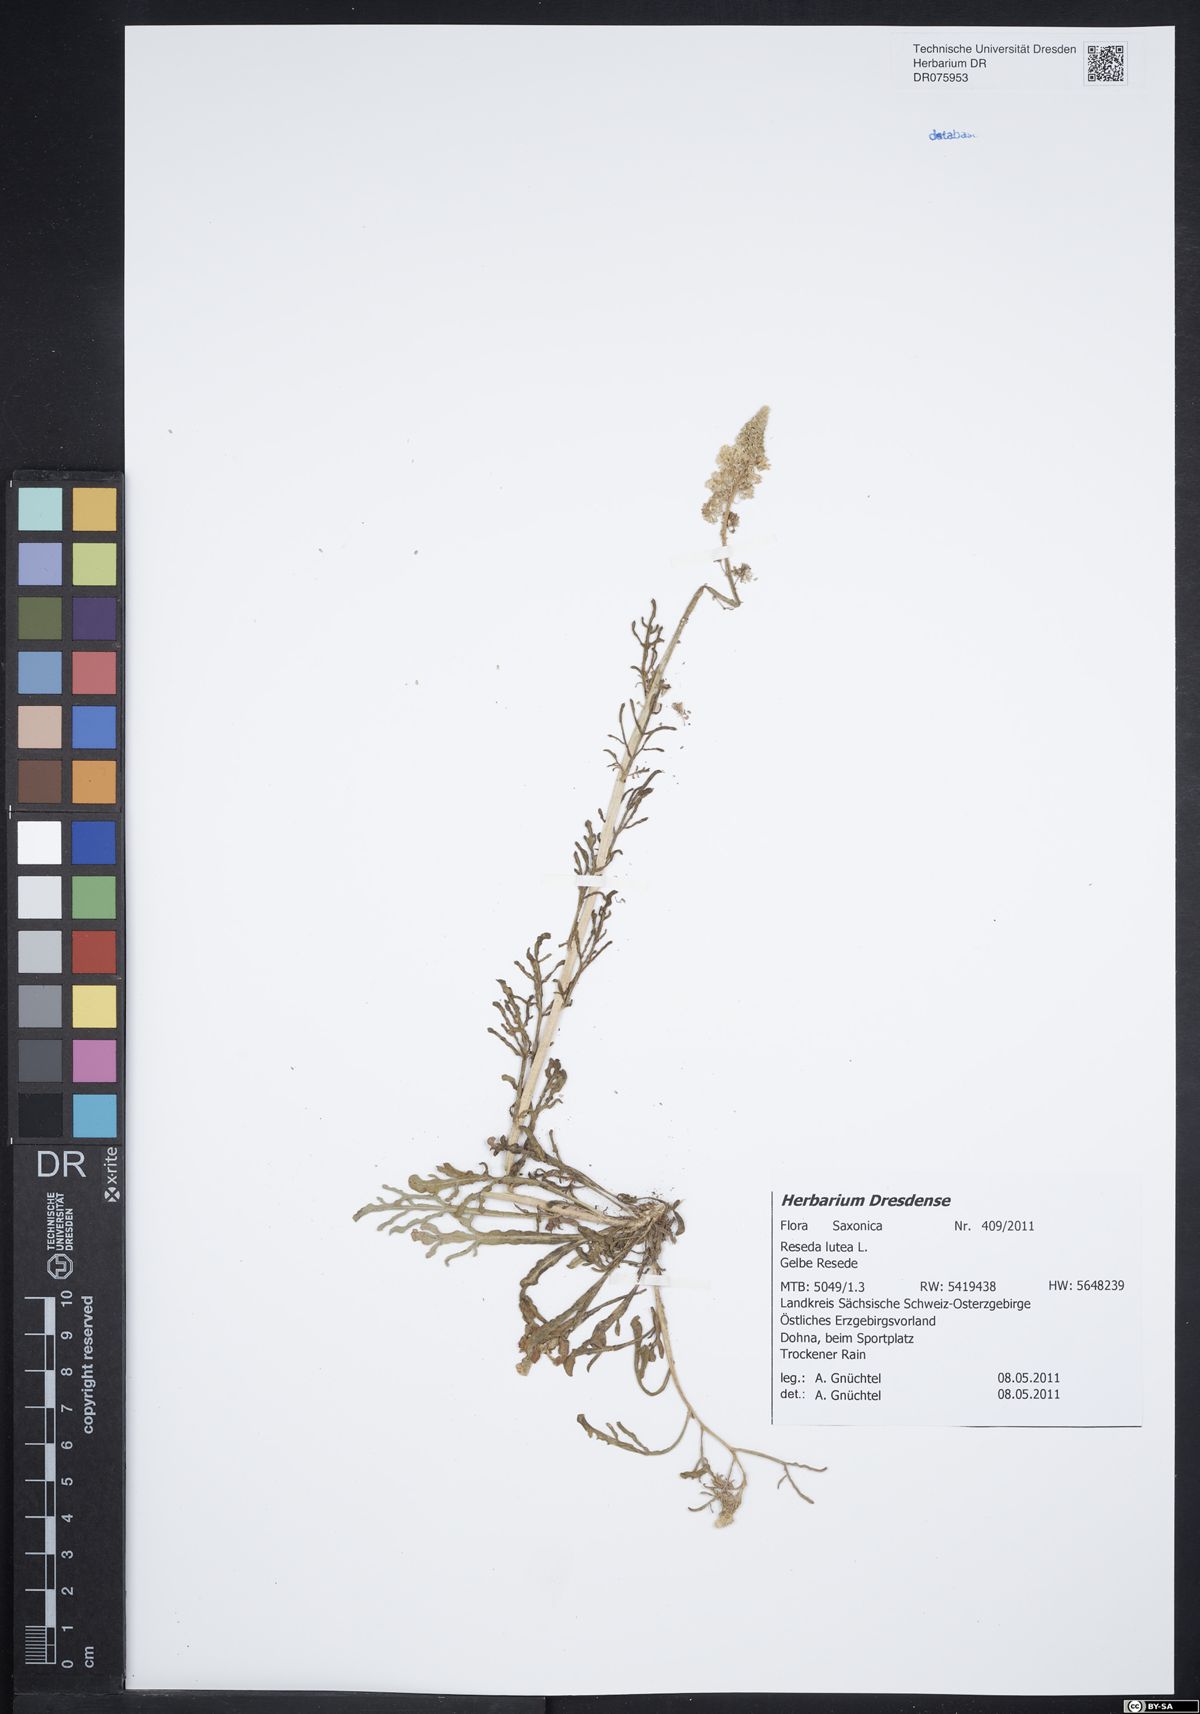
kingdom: Plantae
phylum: Tracheophyta
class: Magnoliopsida
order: Brassicales
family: Resedaceae
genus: Reseda
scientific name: Reseda lutea
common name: Wild mignonette
